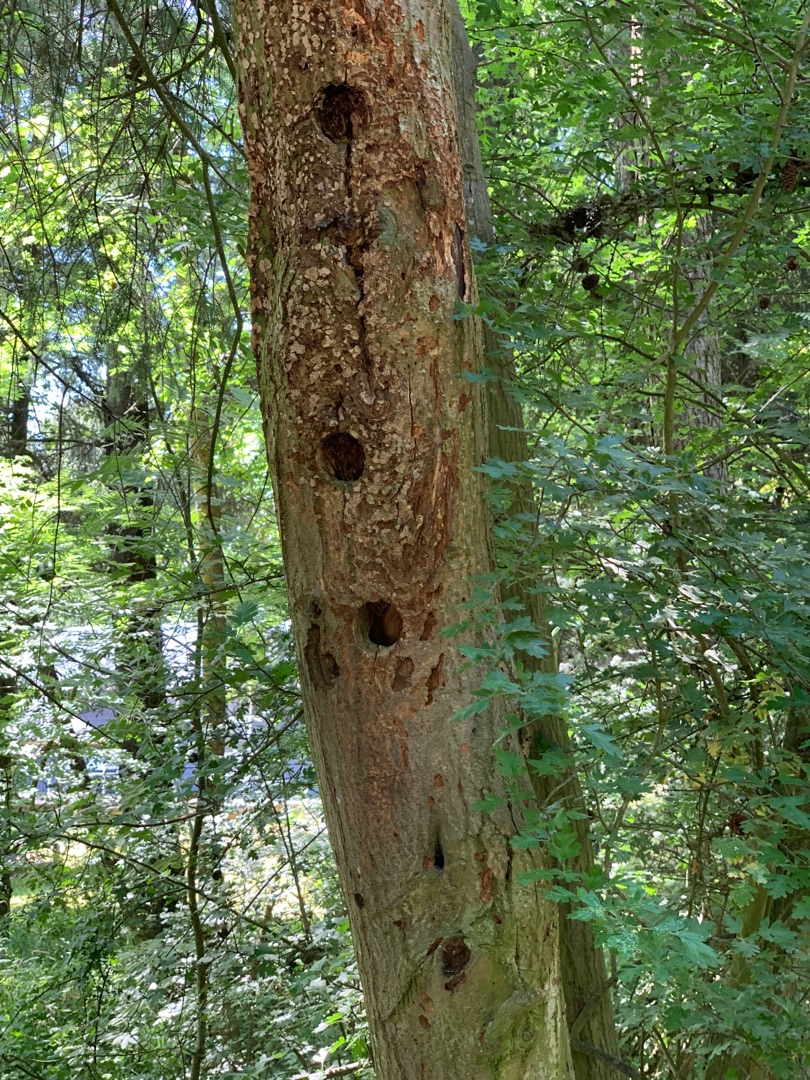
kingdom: Animalia
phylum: Chordata
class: Aves
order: Piciformes
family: Picidae
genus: Dendrocopos
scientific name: Dendrocopos major
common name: Stor flagspætte
